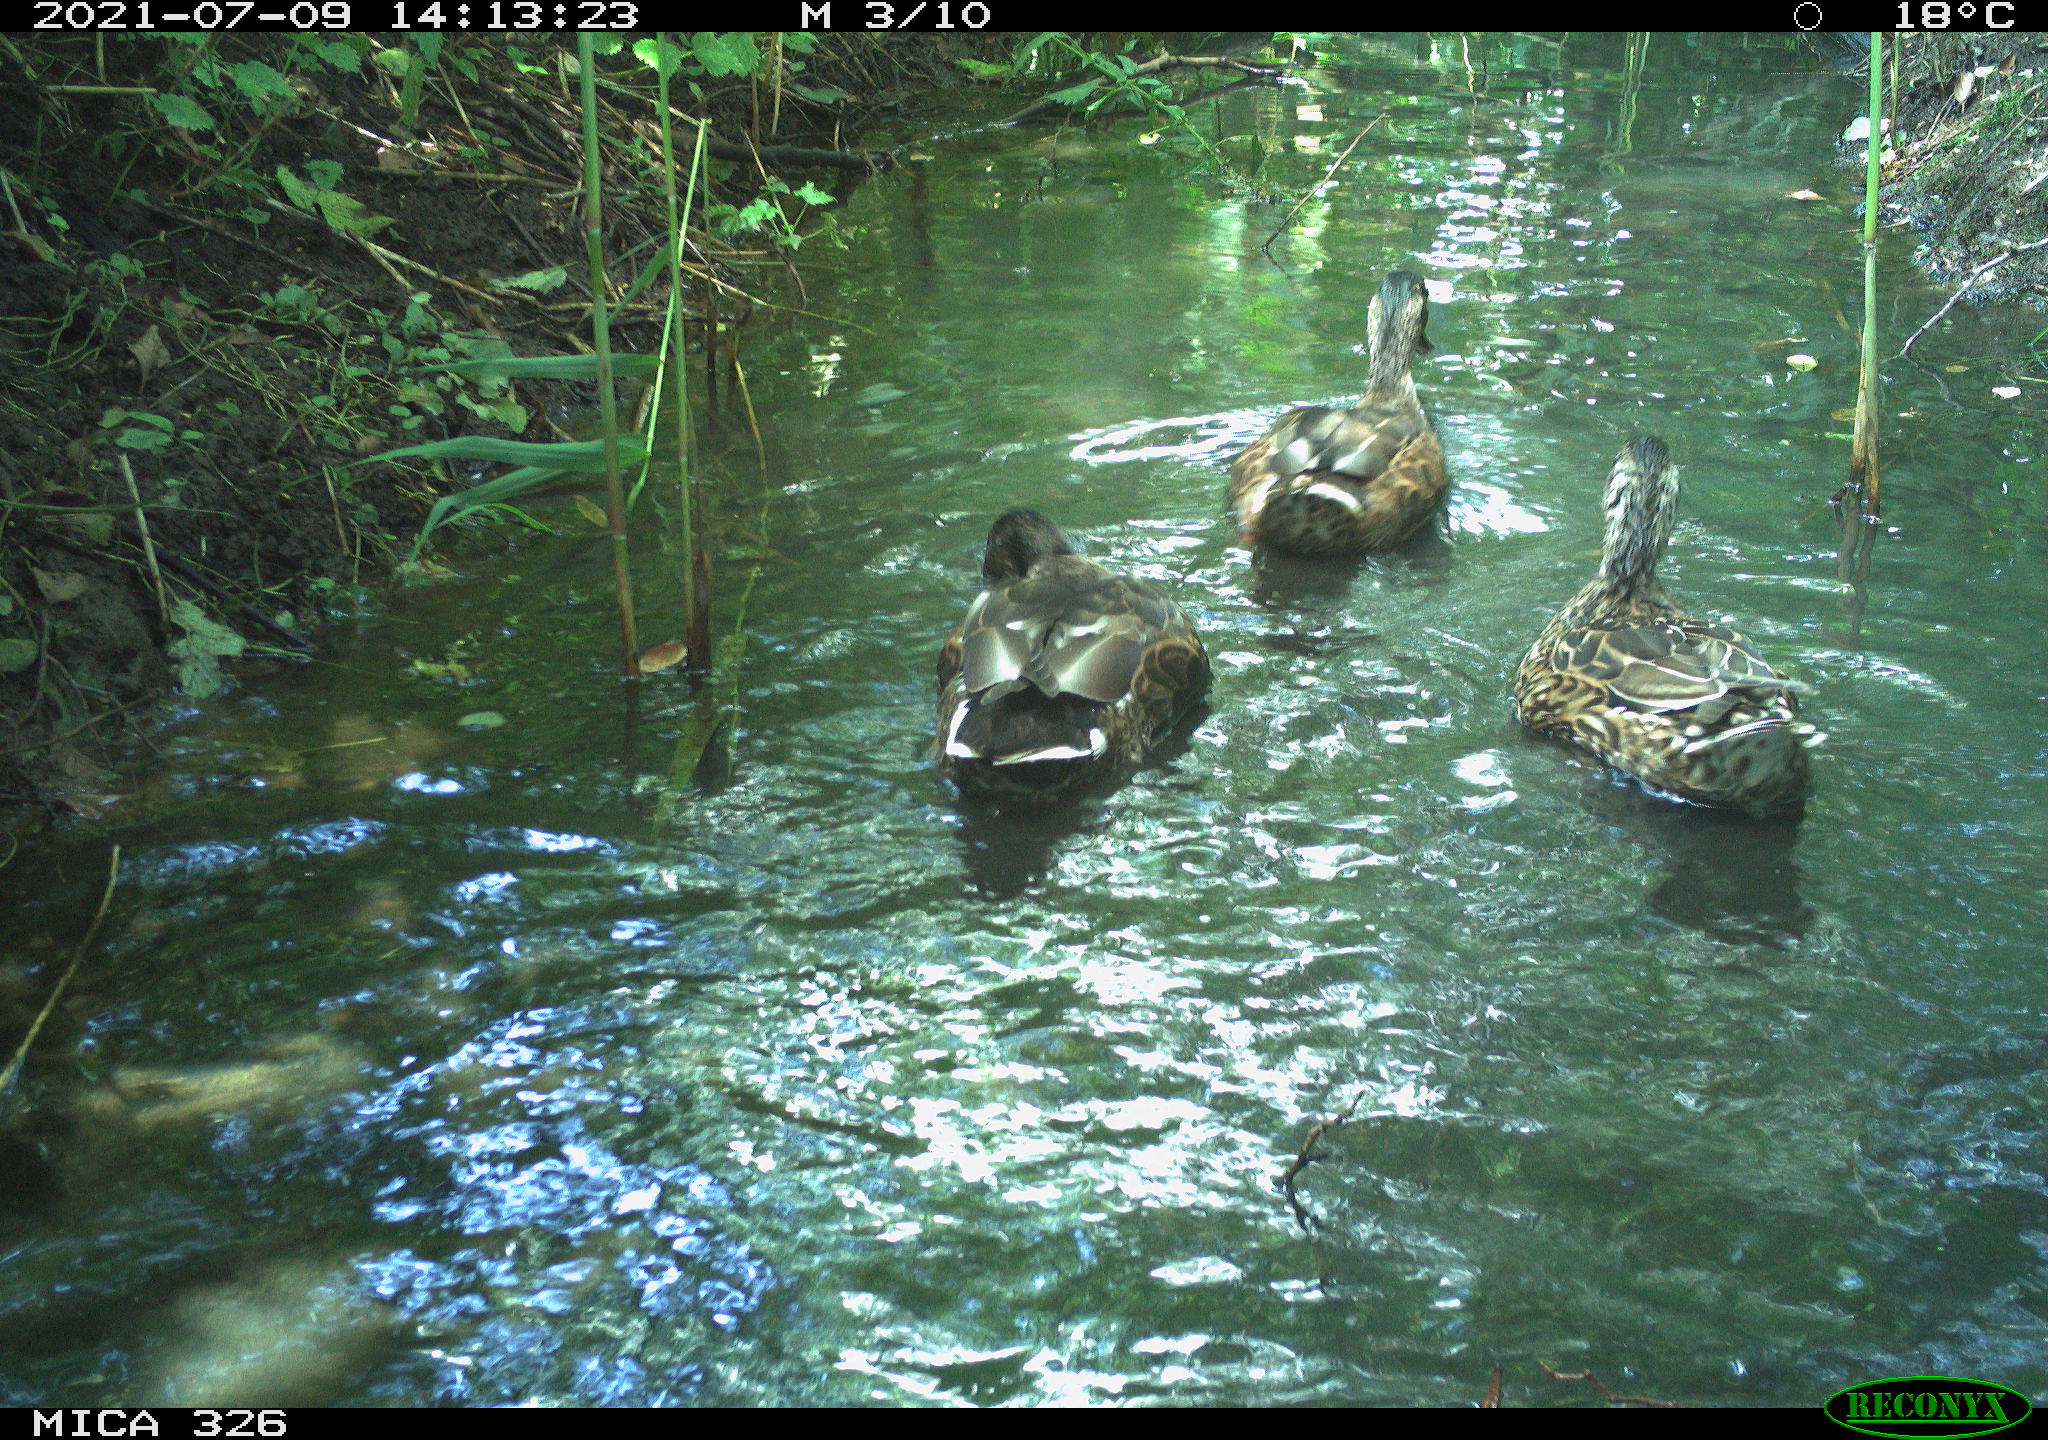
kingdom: Animalia
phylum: Chordata
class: Aves
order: Anseriformes
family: Anatidae
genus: Anas
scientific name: Anas platyrhynchos
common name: Mallard
